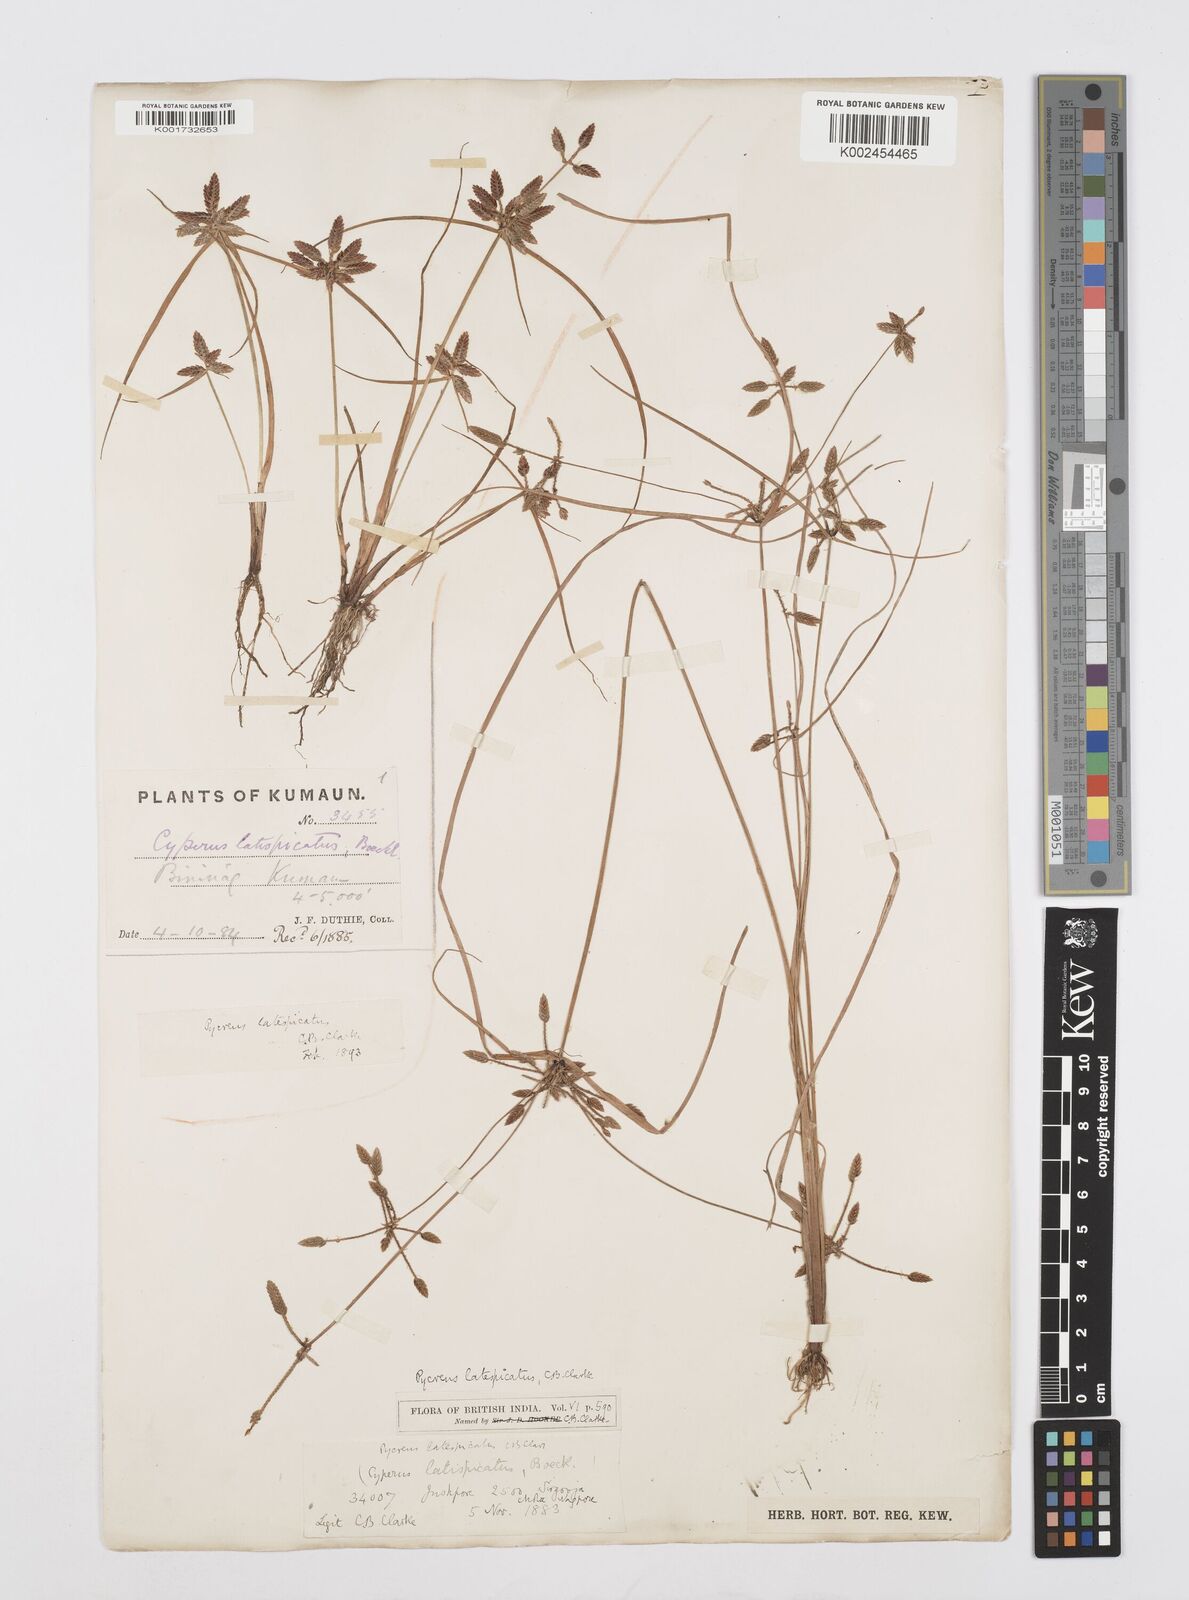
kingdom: Plantae
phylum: Tracheophyta
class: Liliopsida
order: Poales
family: Cyperaceae
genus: Cyperus
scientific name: Cyperus diaphanus
